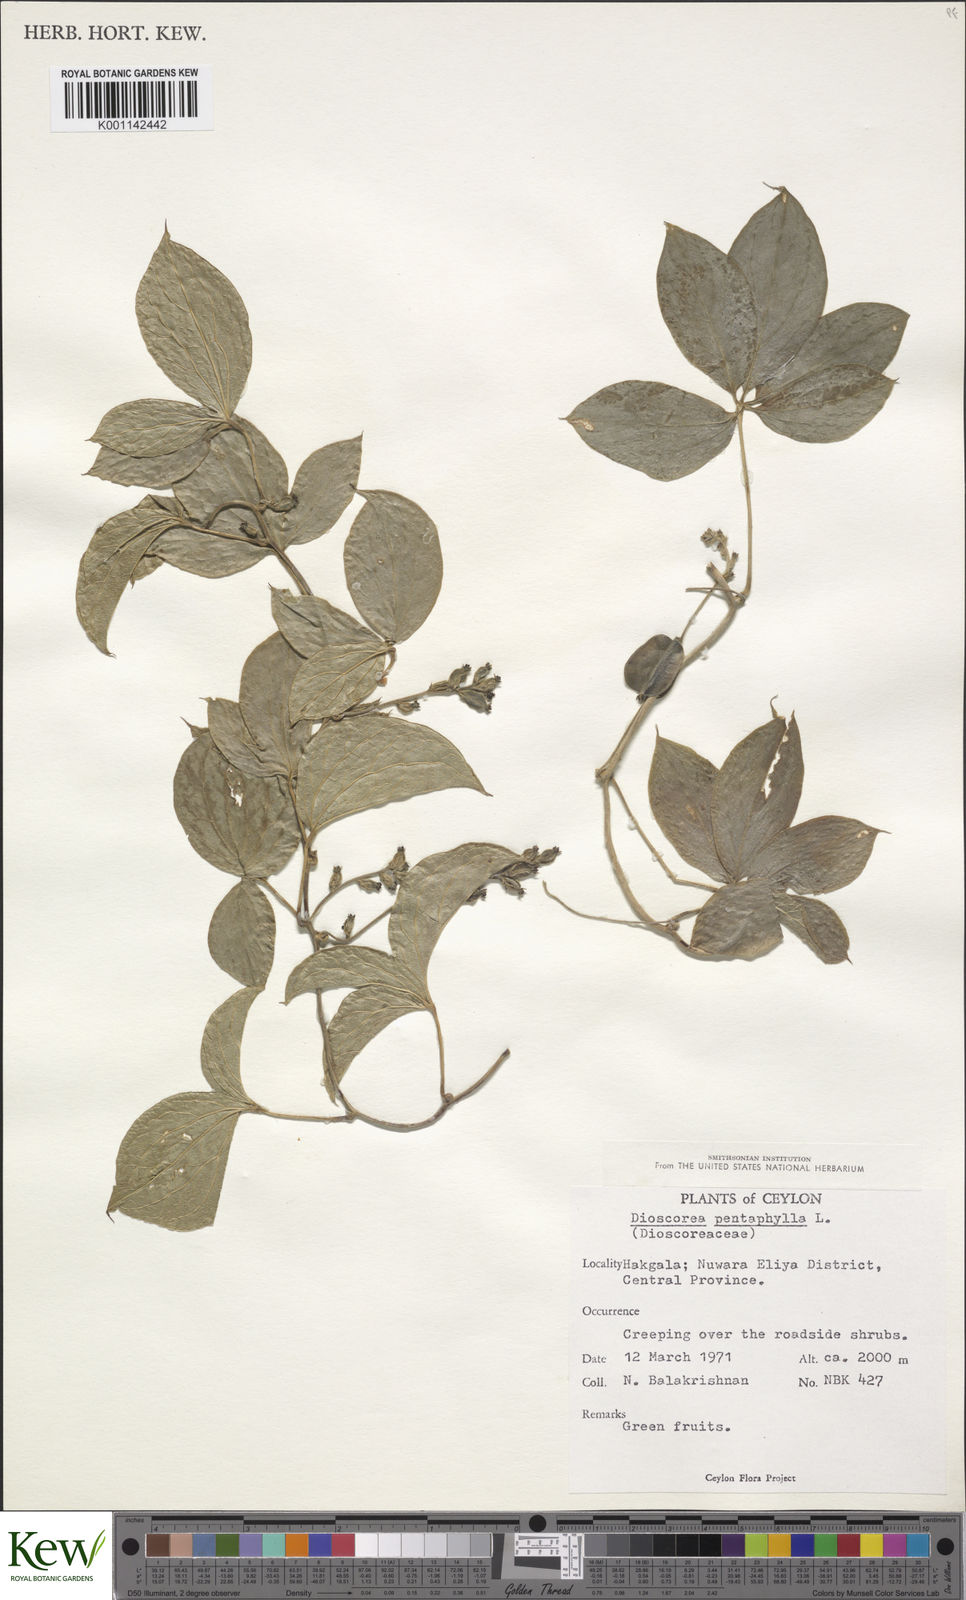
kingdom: Plantae
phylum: Tracheophyta
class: Liliopsida
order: Dioscoreales
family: Dioscoreaceae
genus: Dioscorea
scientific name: Dioscorea pentaphylla
